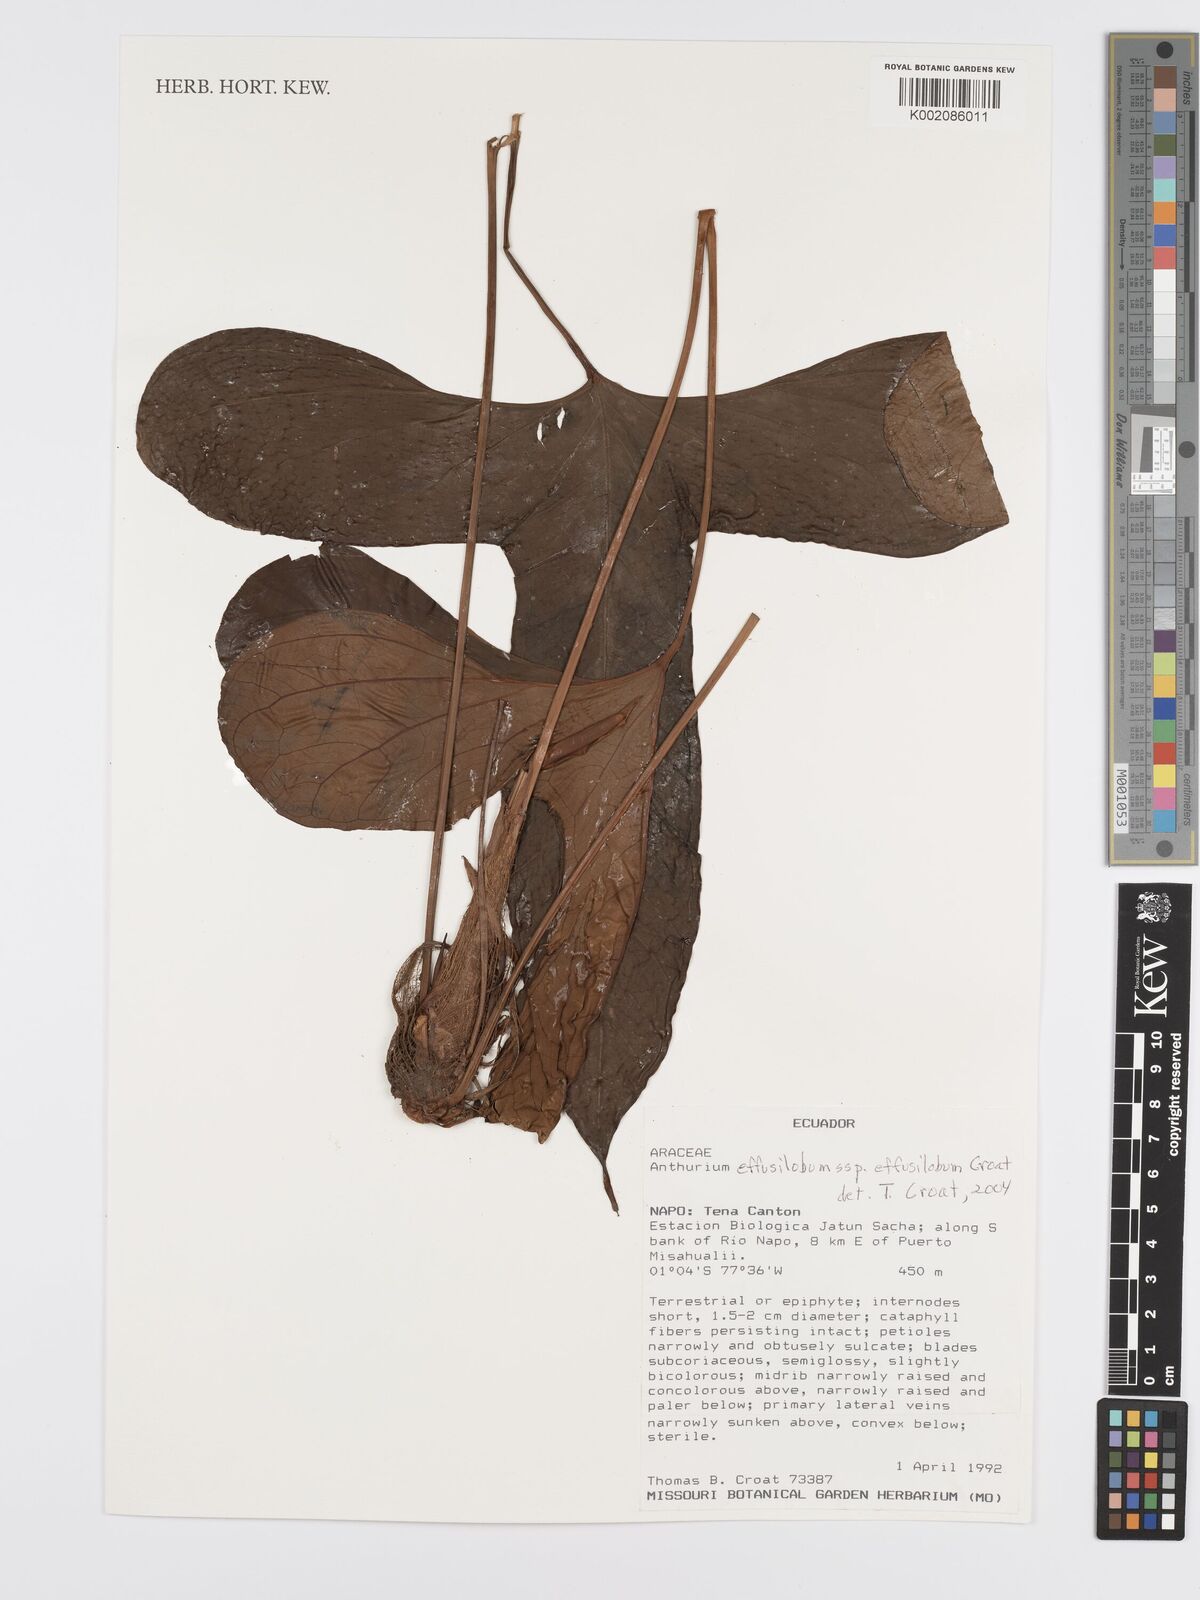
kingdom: Plantae
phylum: Tracheophyta
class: Liliopsida
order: Alismatales
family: Araceae
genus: Anthurium
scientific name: Anthurium effusilobum
